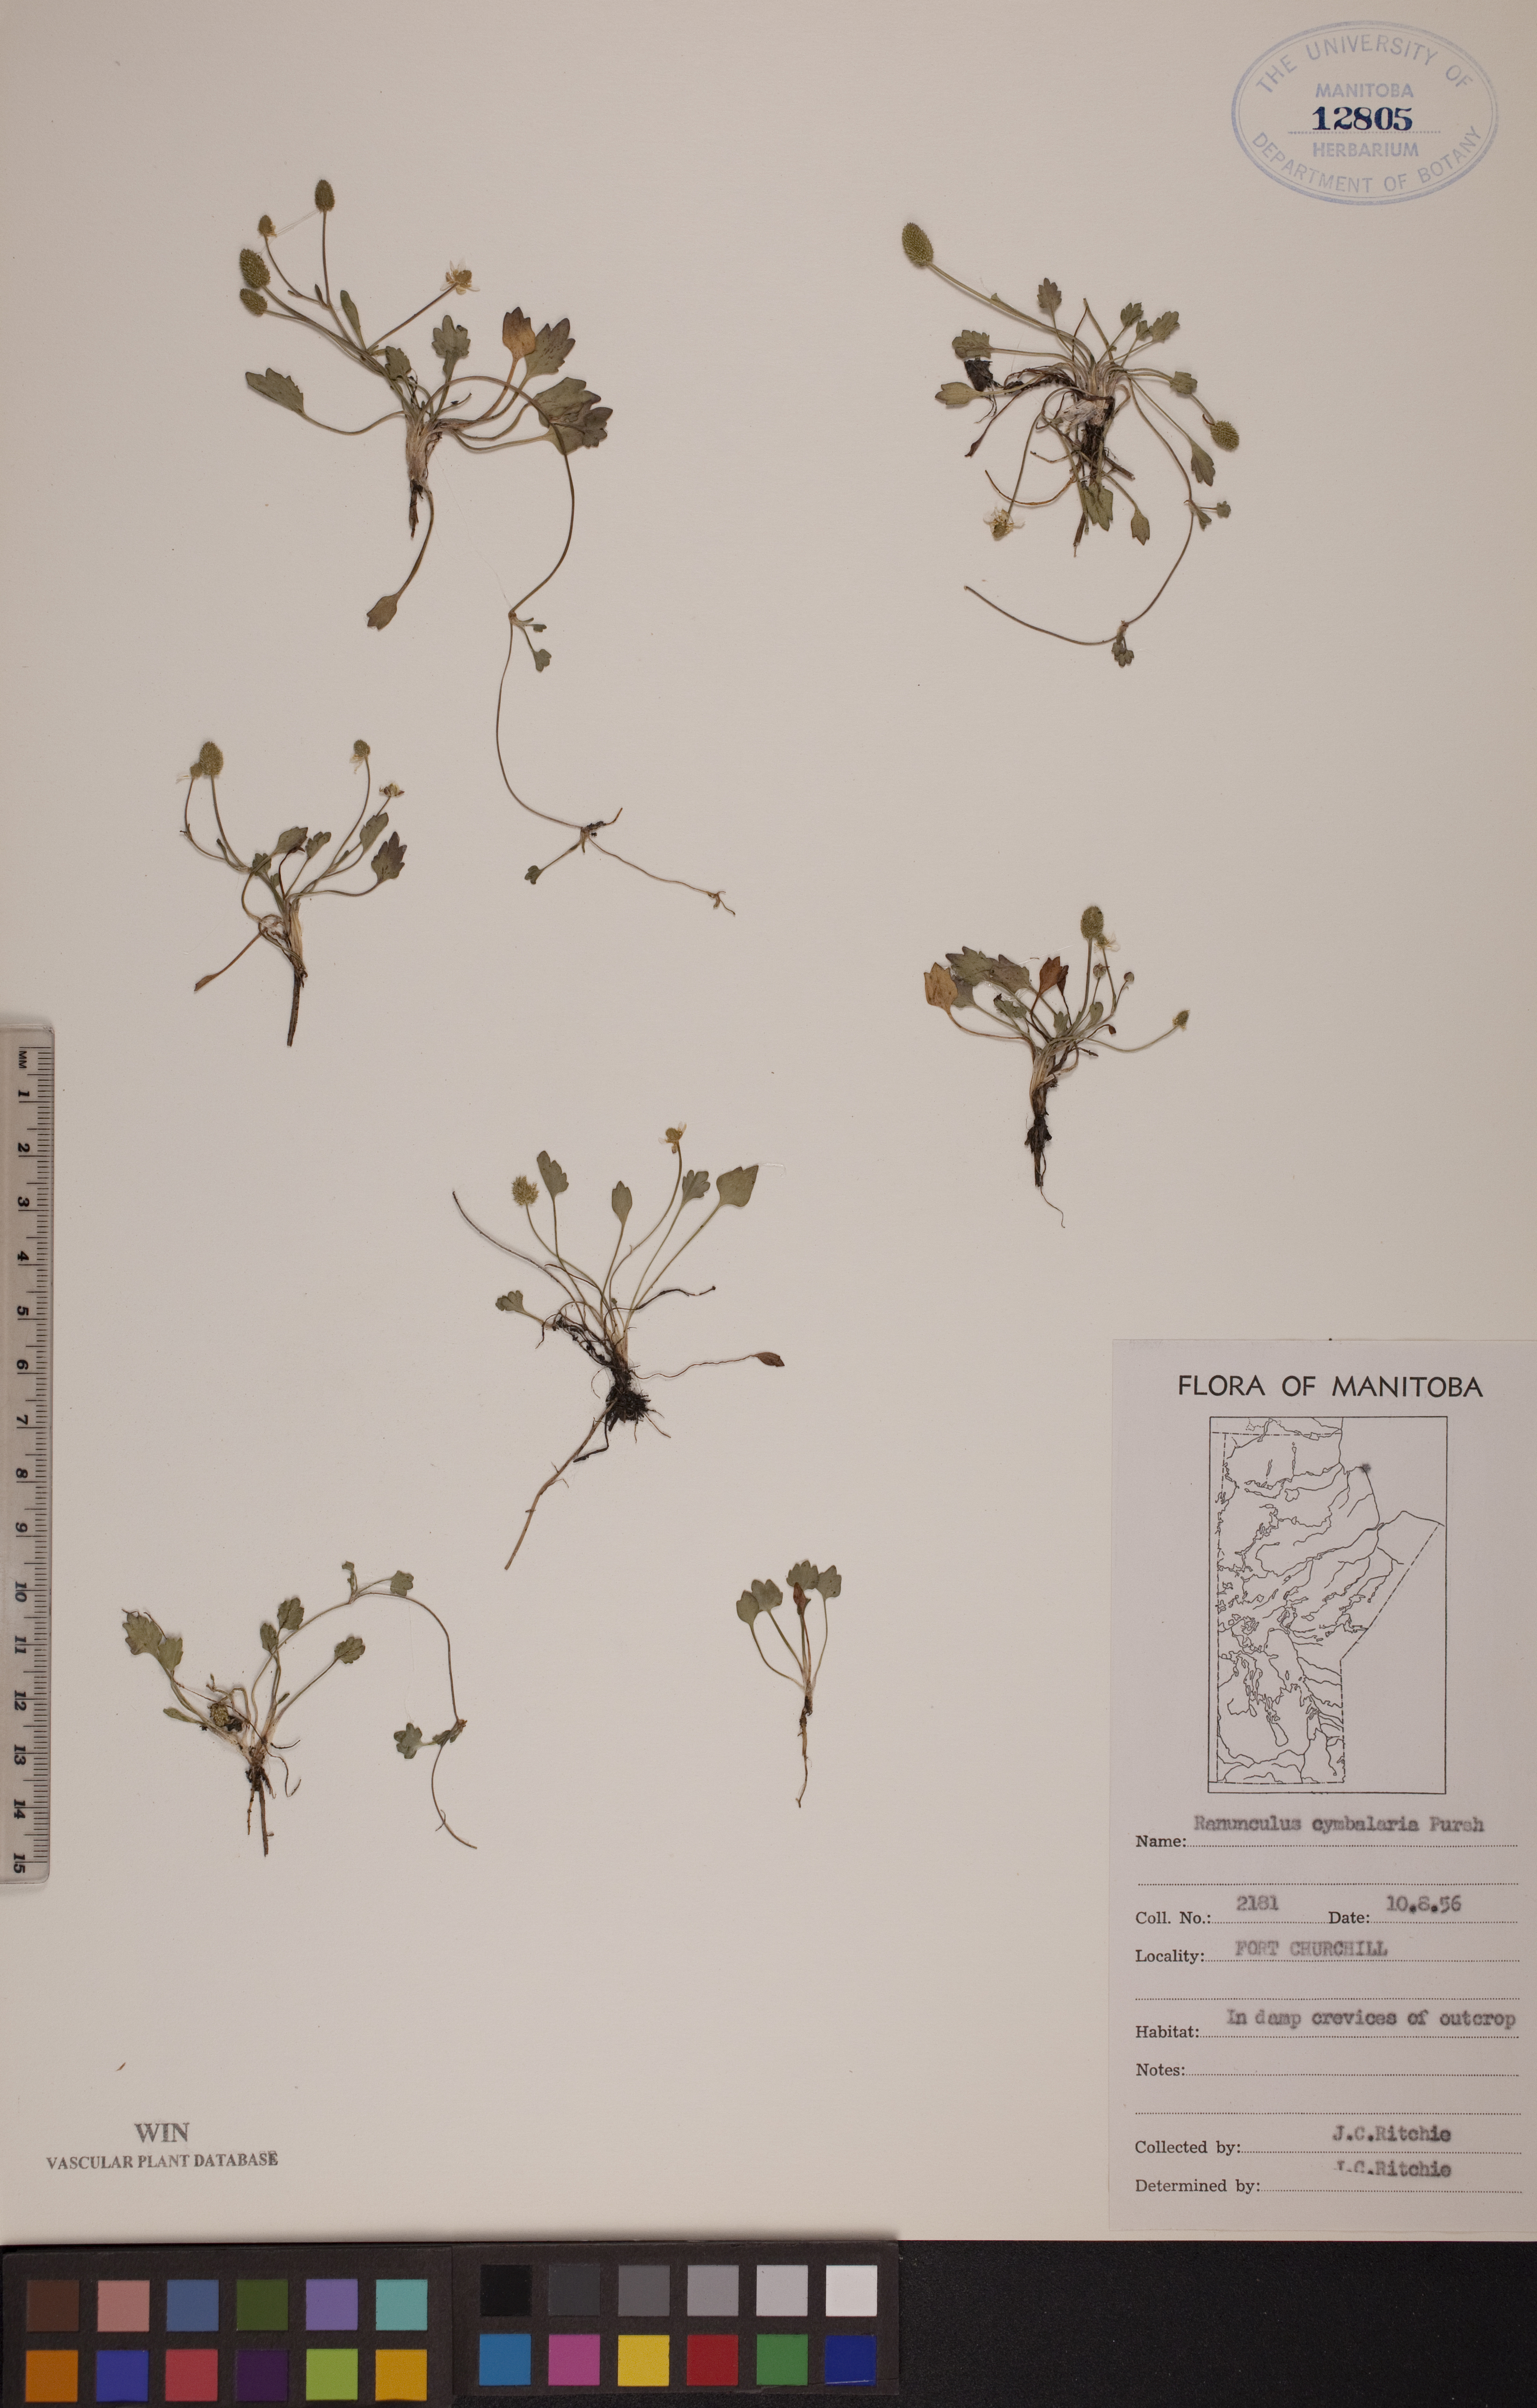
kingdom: Plantae
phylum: Tracheophyta
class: Magnoliopsida
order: Ranunculales
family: Ranunculaceae
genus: Halerpestes
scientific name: Halerpestes cymbalaria
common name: Seaside crowfoot
